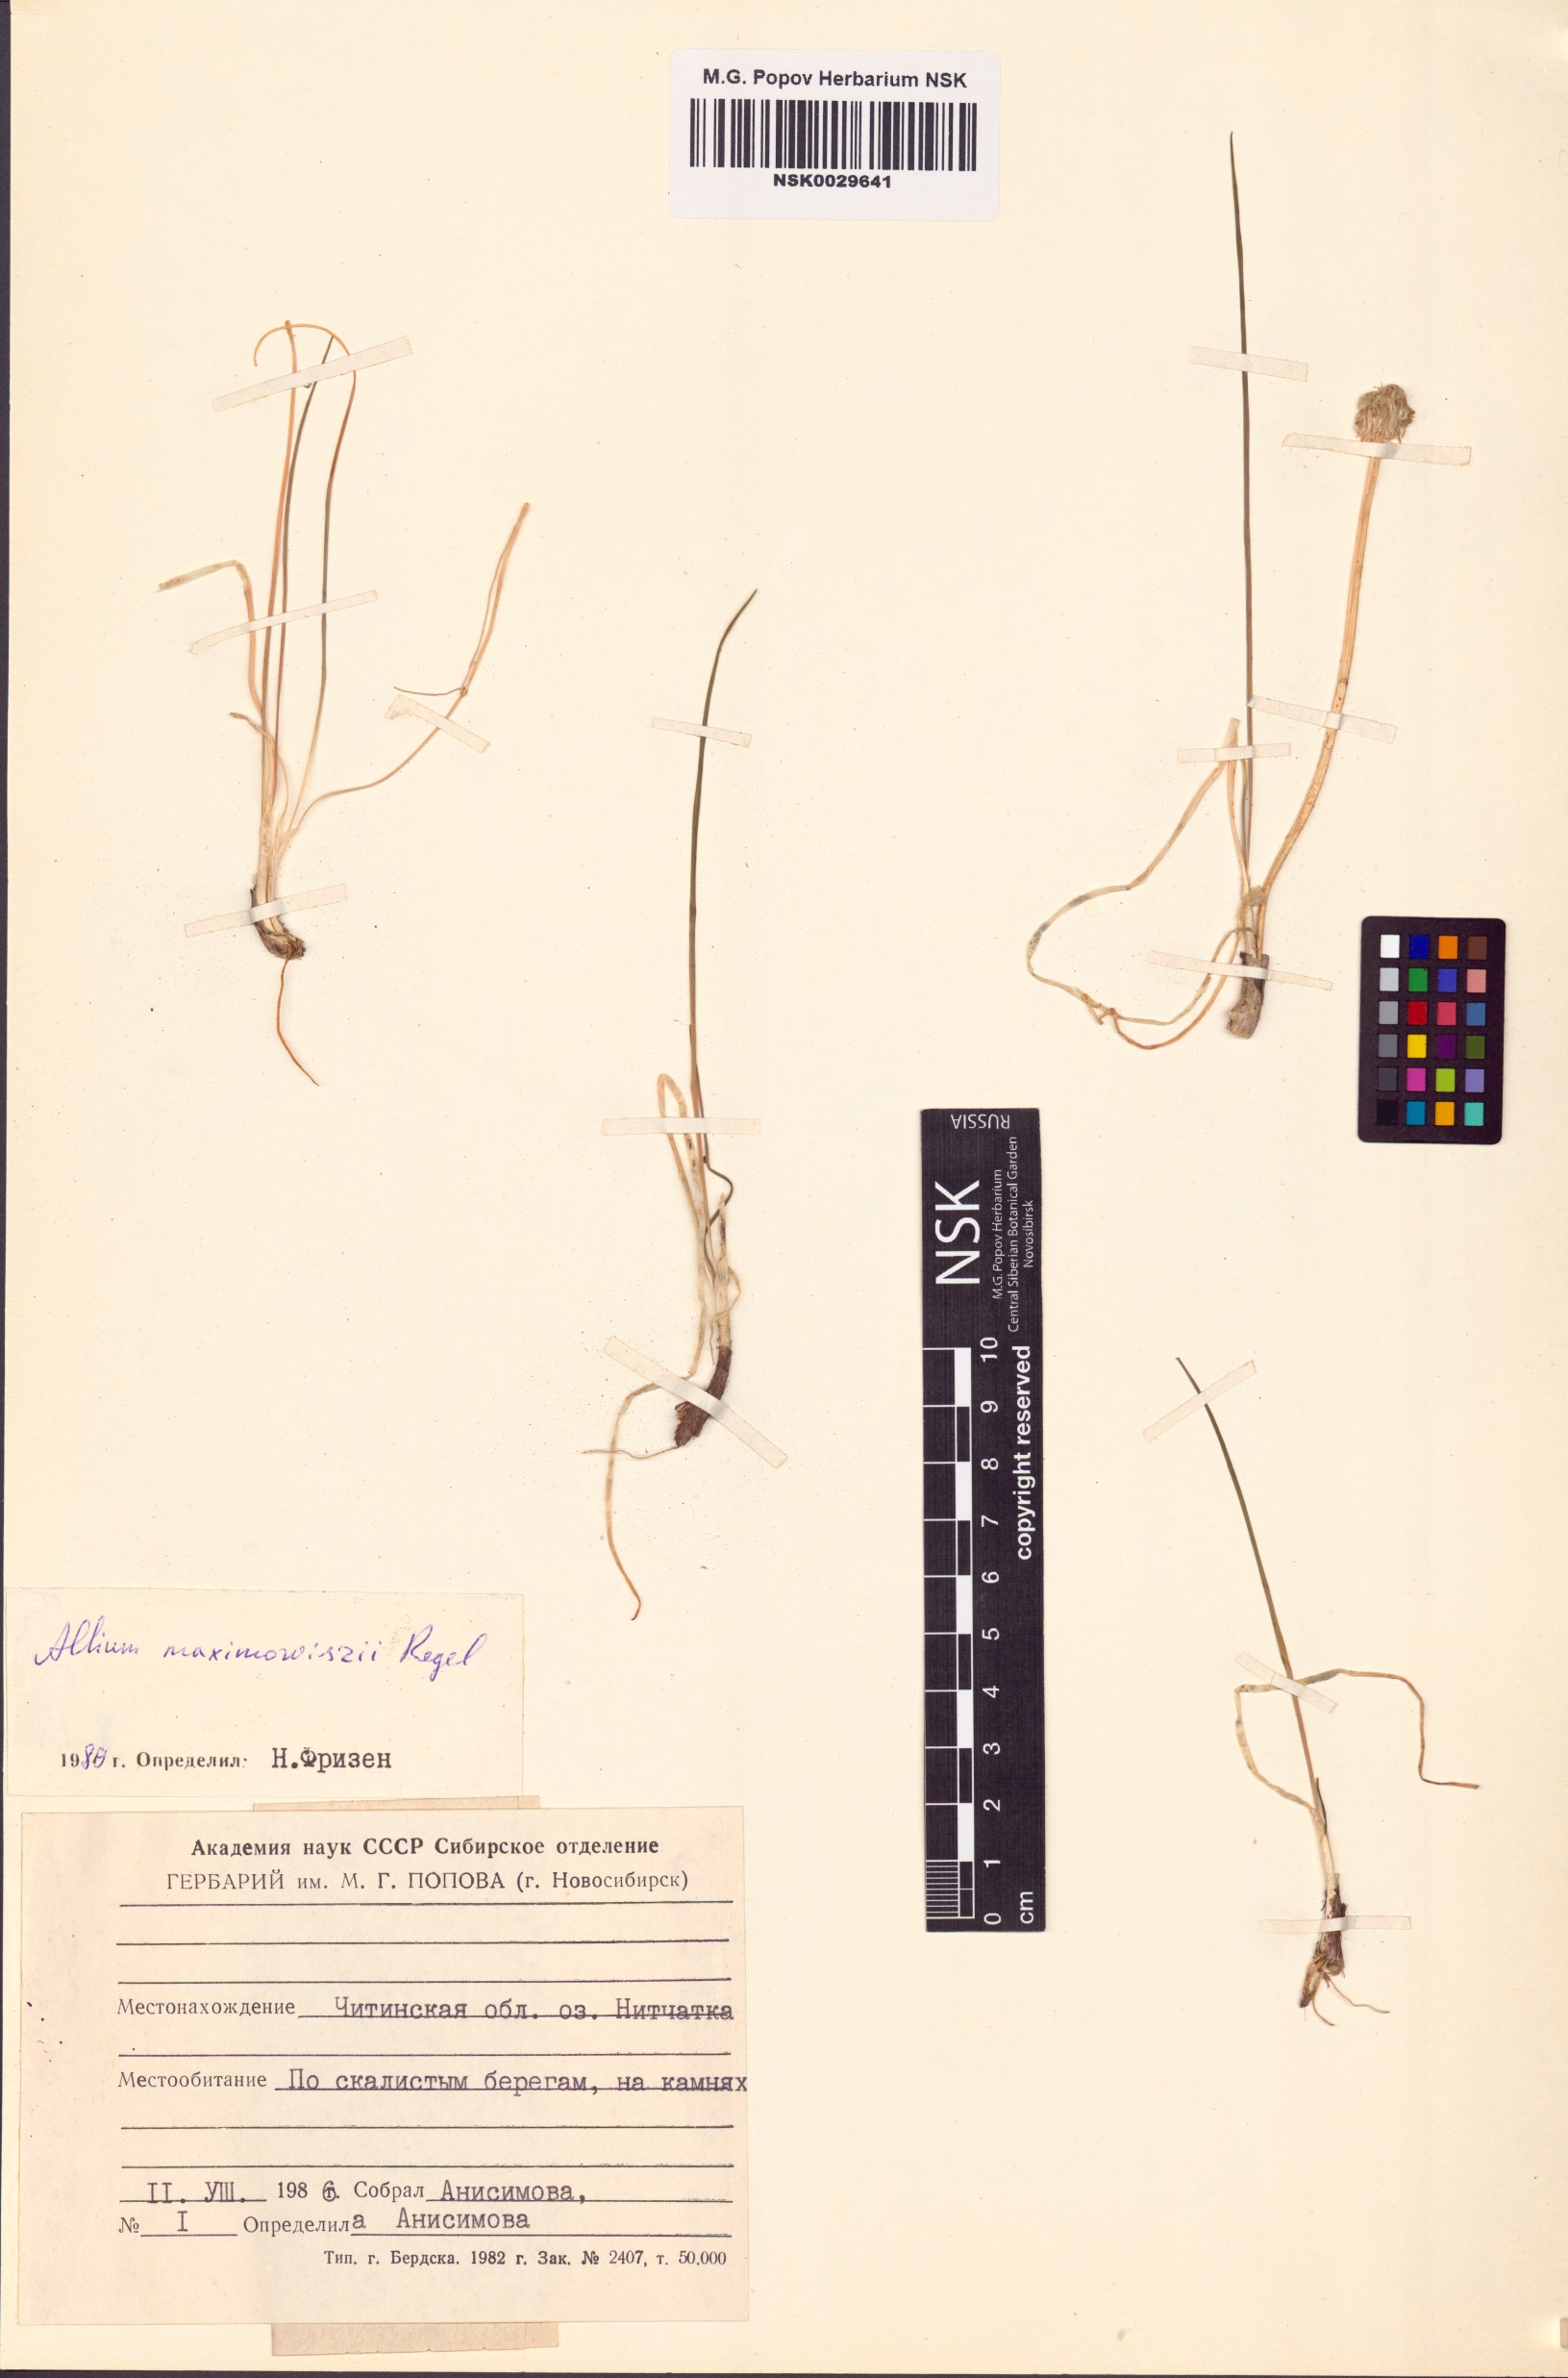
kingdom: Plantae
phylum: Tracheophyta
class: Liliopsida
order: Asparagales
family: Amaryllidaceae
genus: Allium
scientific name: Allium maximowiczii
